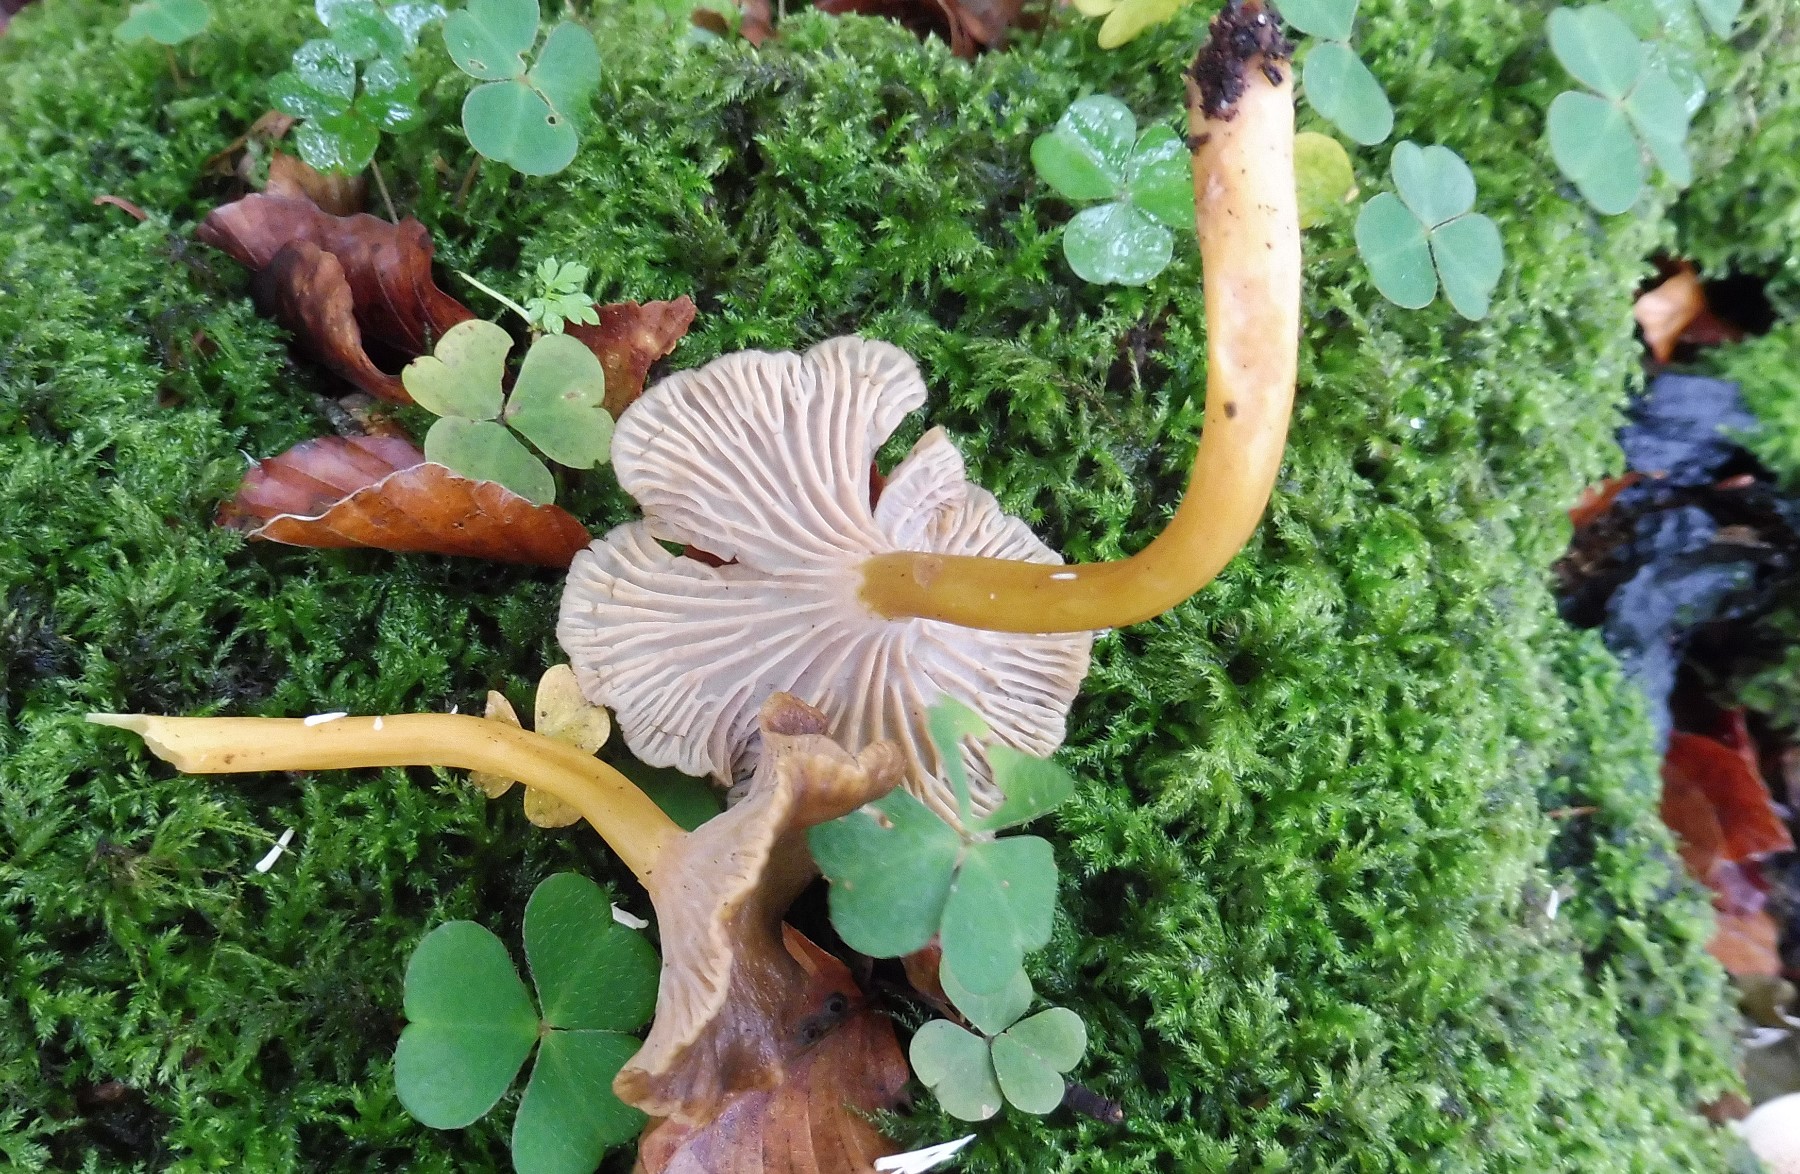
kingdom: Fungi
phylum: Basidiomycota
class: Agaricomycetes
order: Cantharellales
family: Hydnaceae
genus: Craterellus
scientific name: Craterellus tubaeformis
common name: tragt-kantarel
